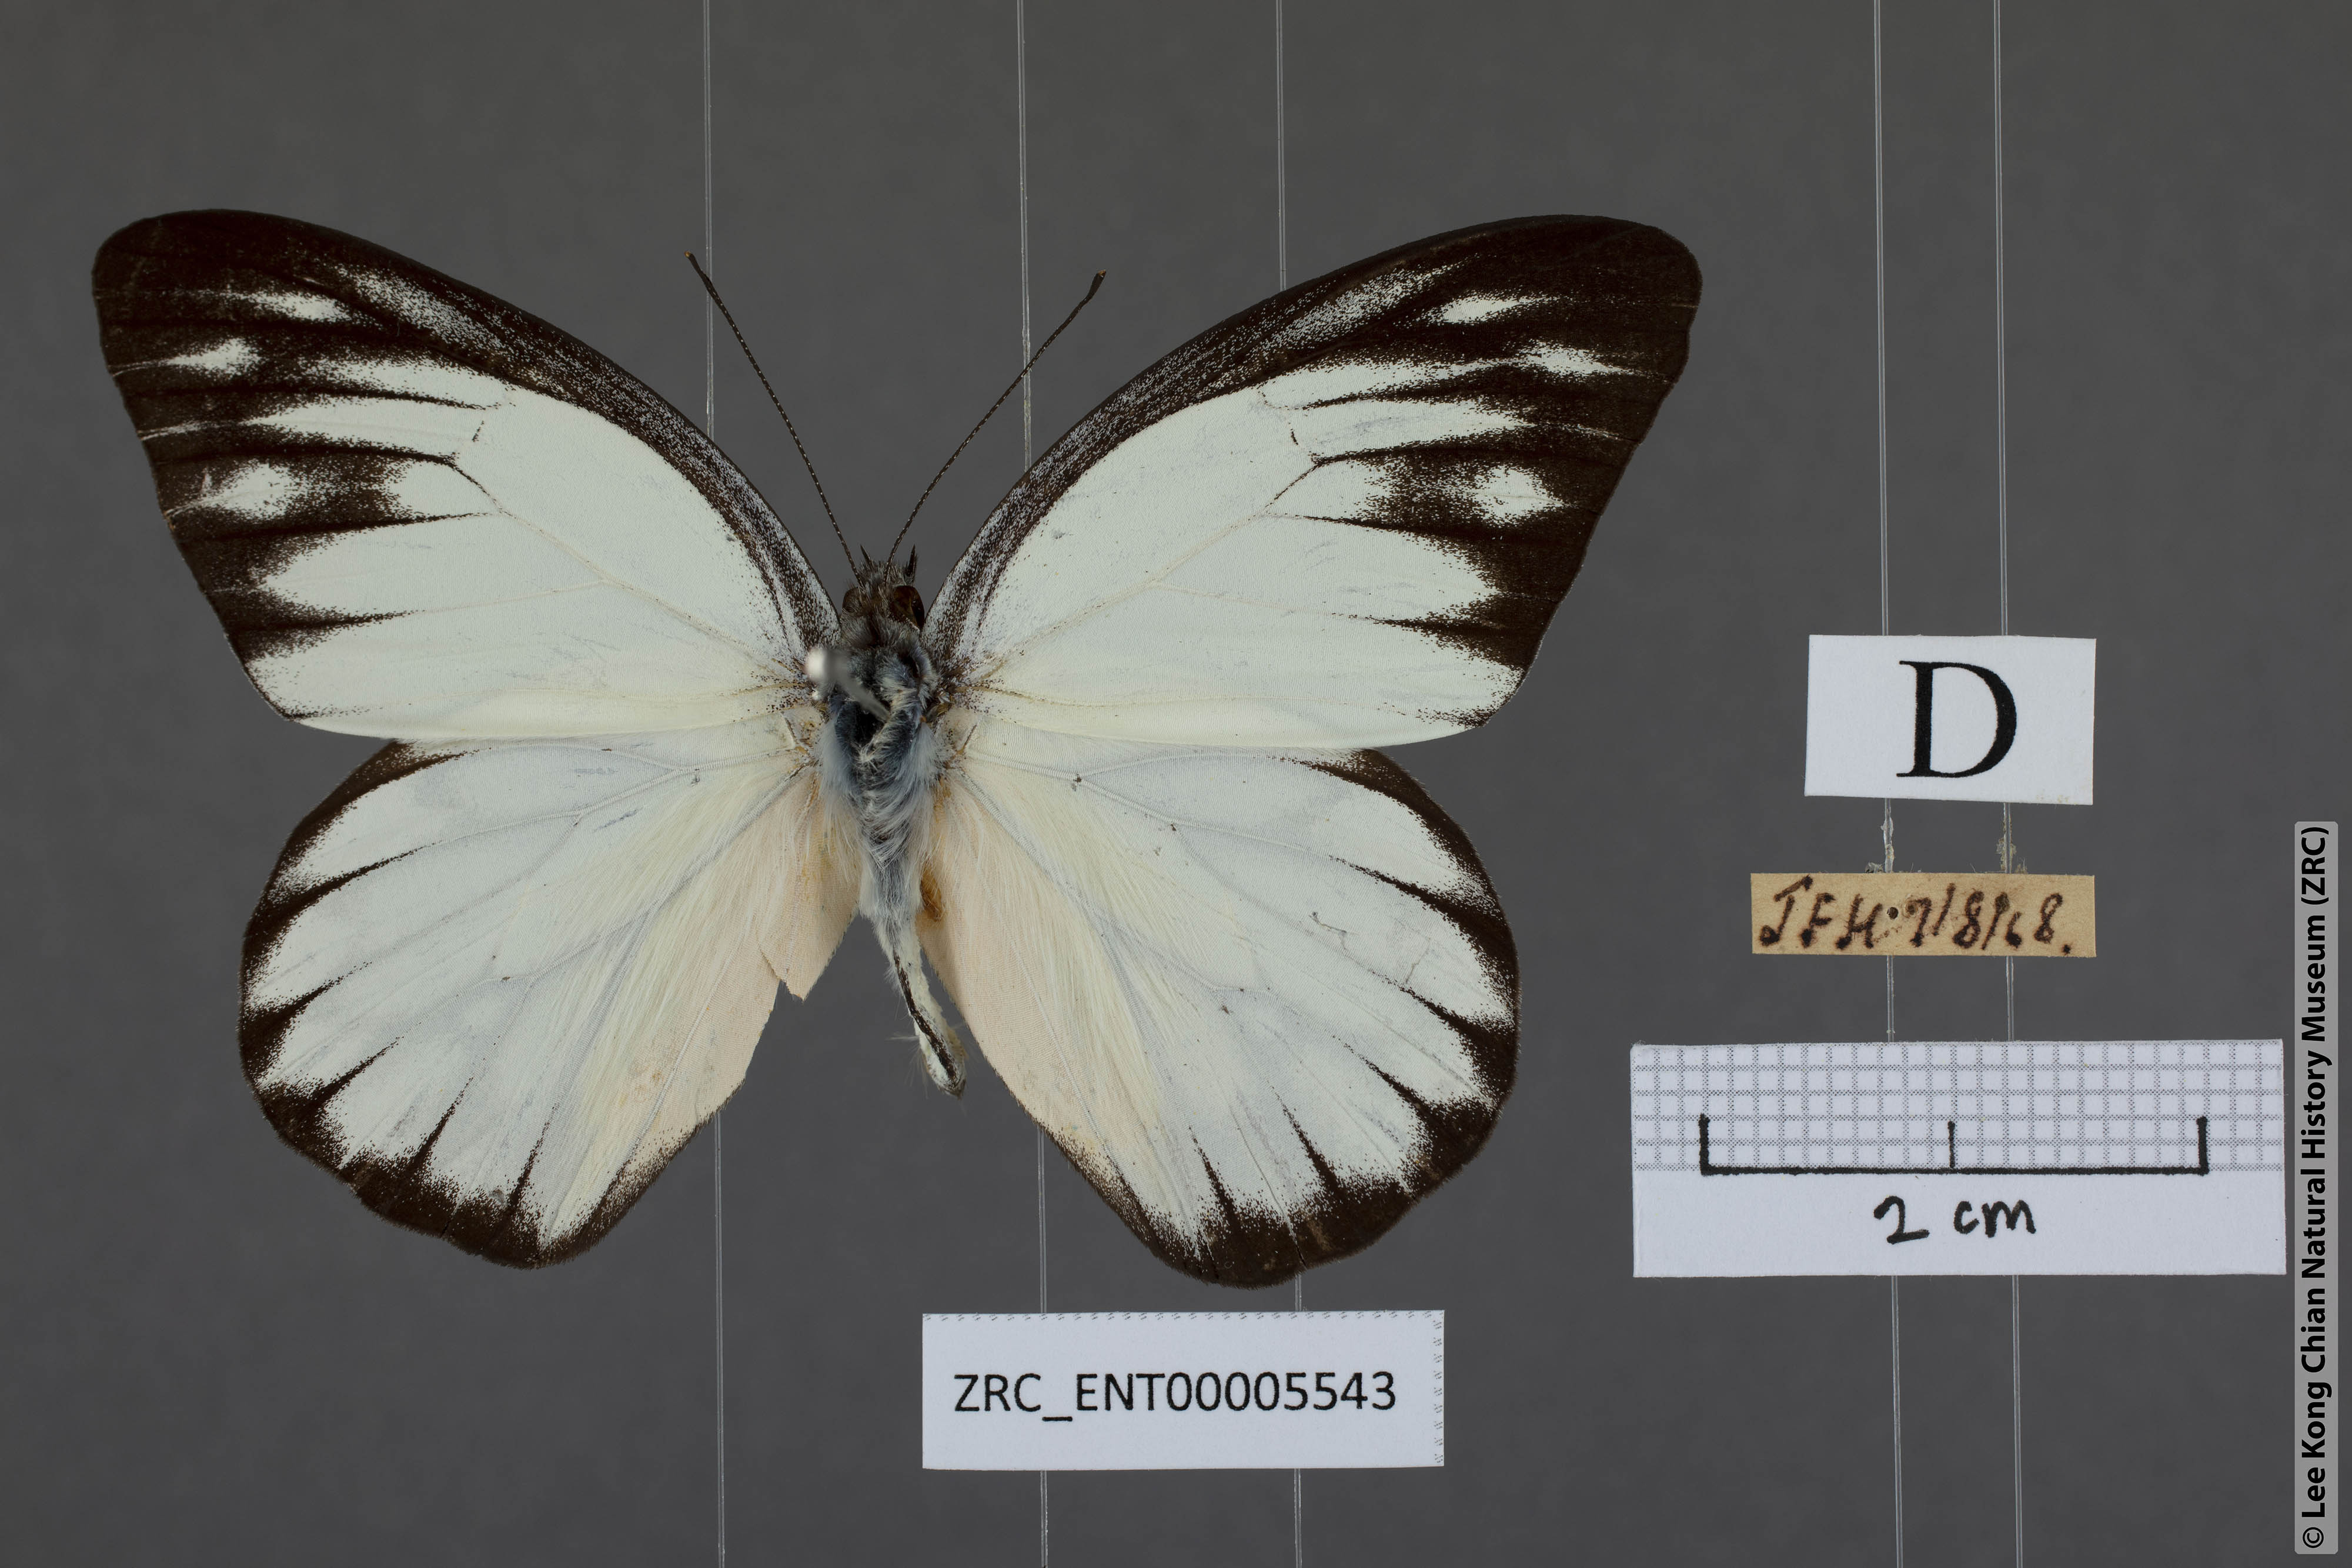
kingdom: Animalia
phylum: Arthropoda
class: Insecta
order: Lepidoptera
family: Pieridae
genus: Appias
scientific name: Appias cardena
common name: Yellow puffin
